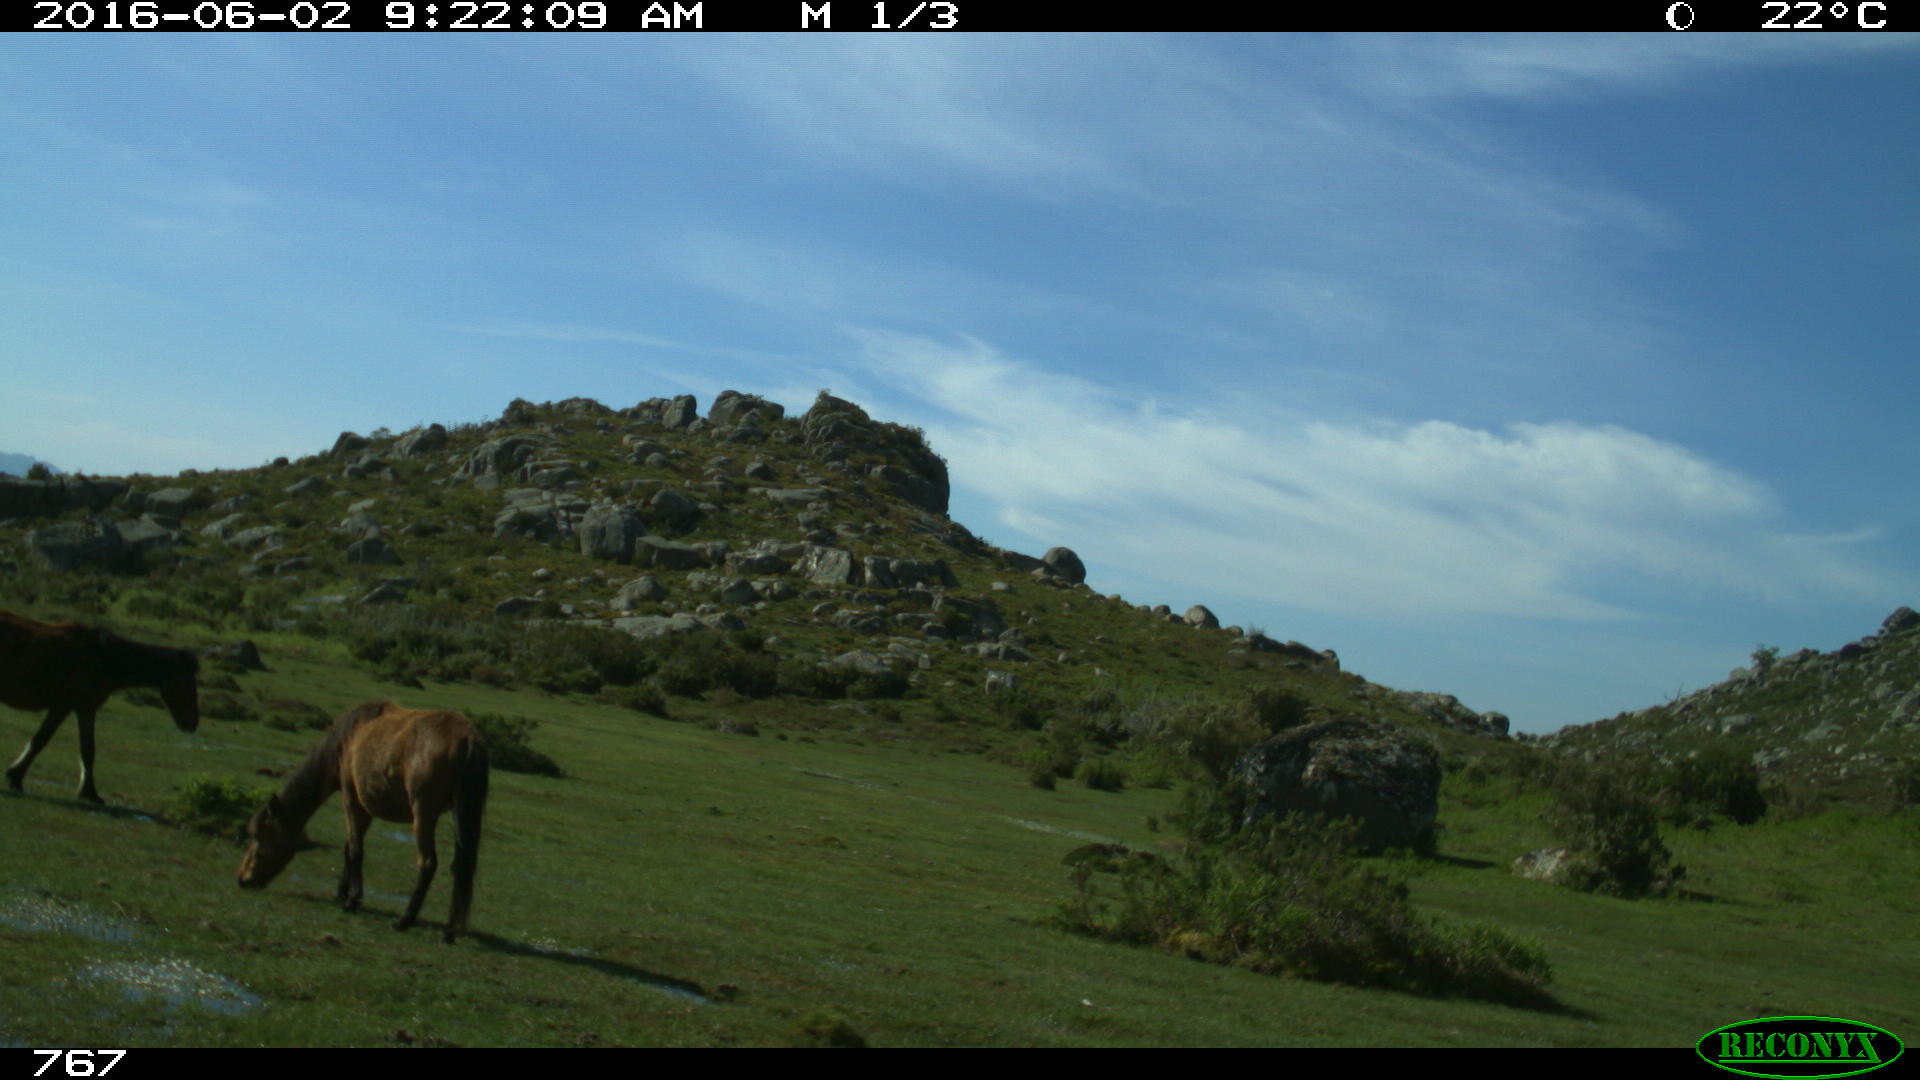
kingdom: Animalia
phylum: Chordata
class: Mammalia
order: Perissodactyla
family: Equidae
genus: Equus
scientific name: Equus caballus
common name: Horse
